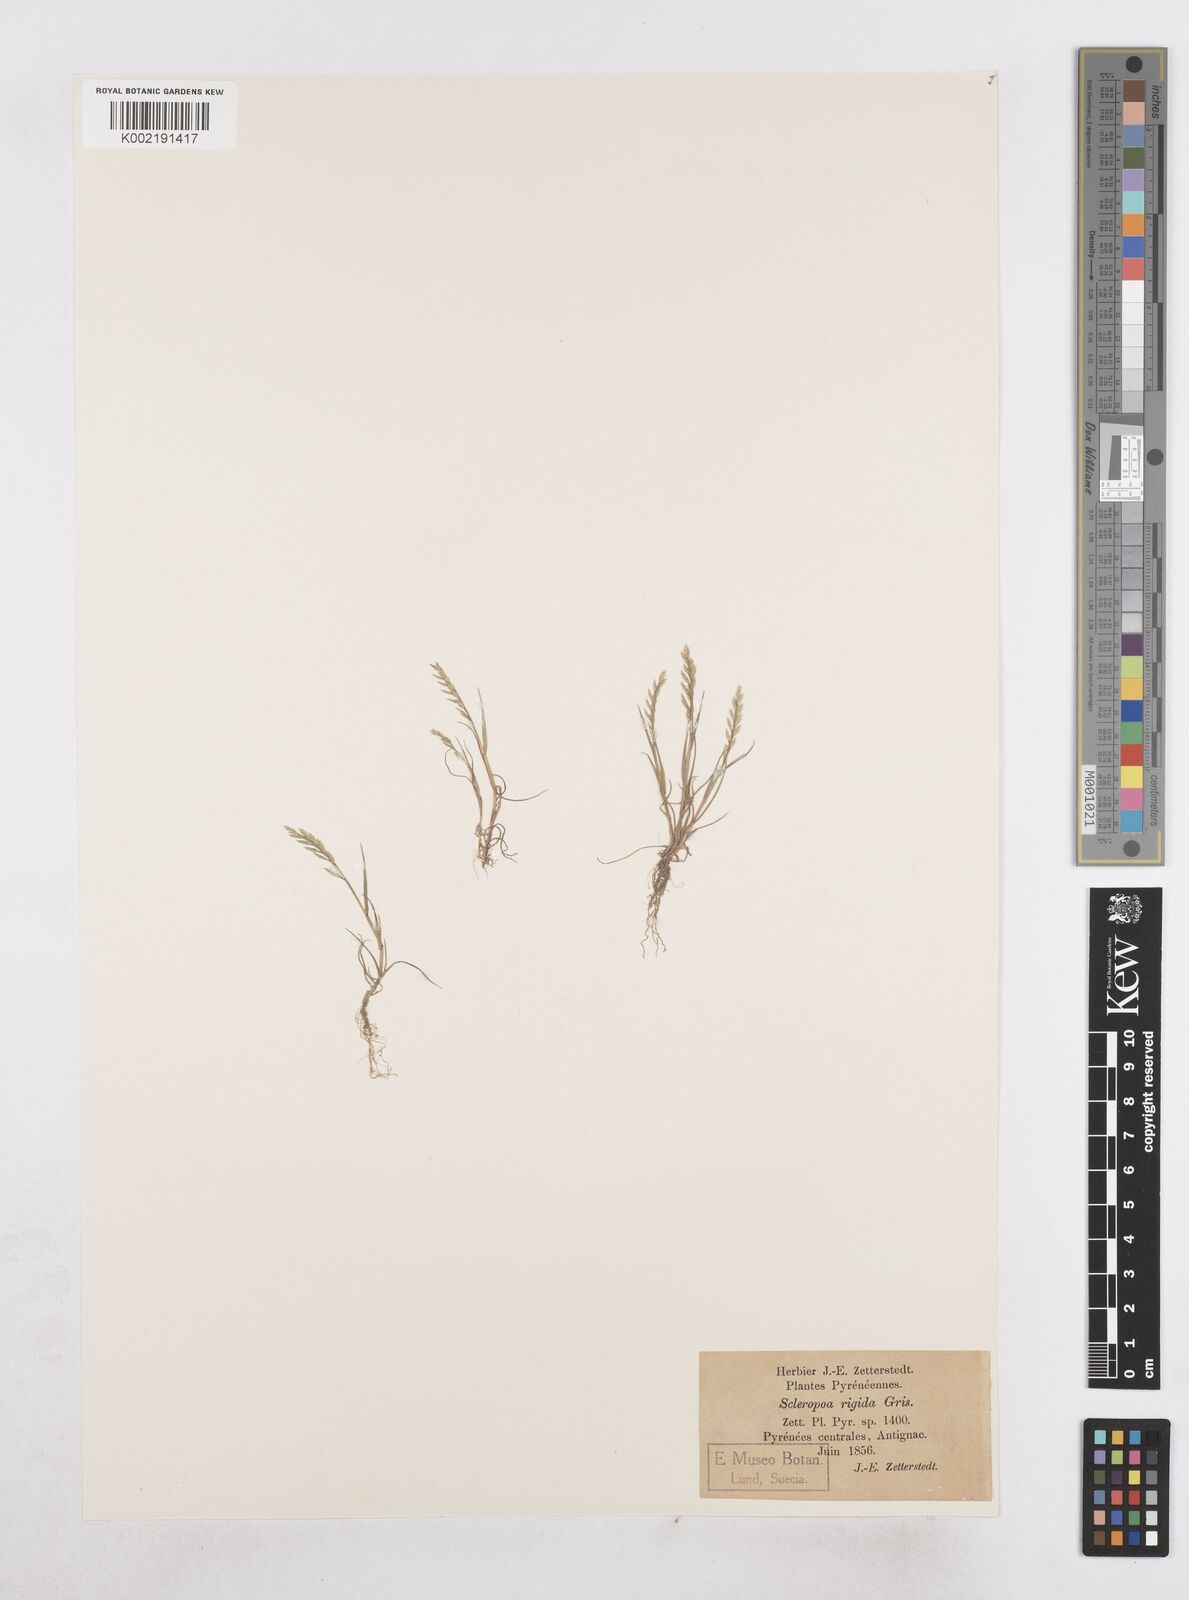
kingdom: Plantae
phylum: Tracheophyta
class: Liliopsida
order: Poales
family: Poaceae
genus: Catapodium
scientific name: Catapodium rigidum
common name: Fern-grass
